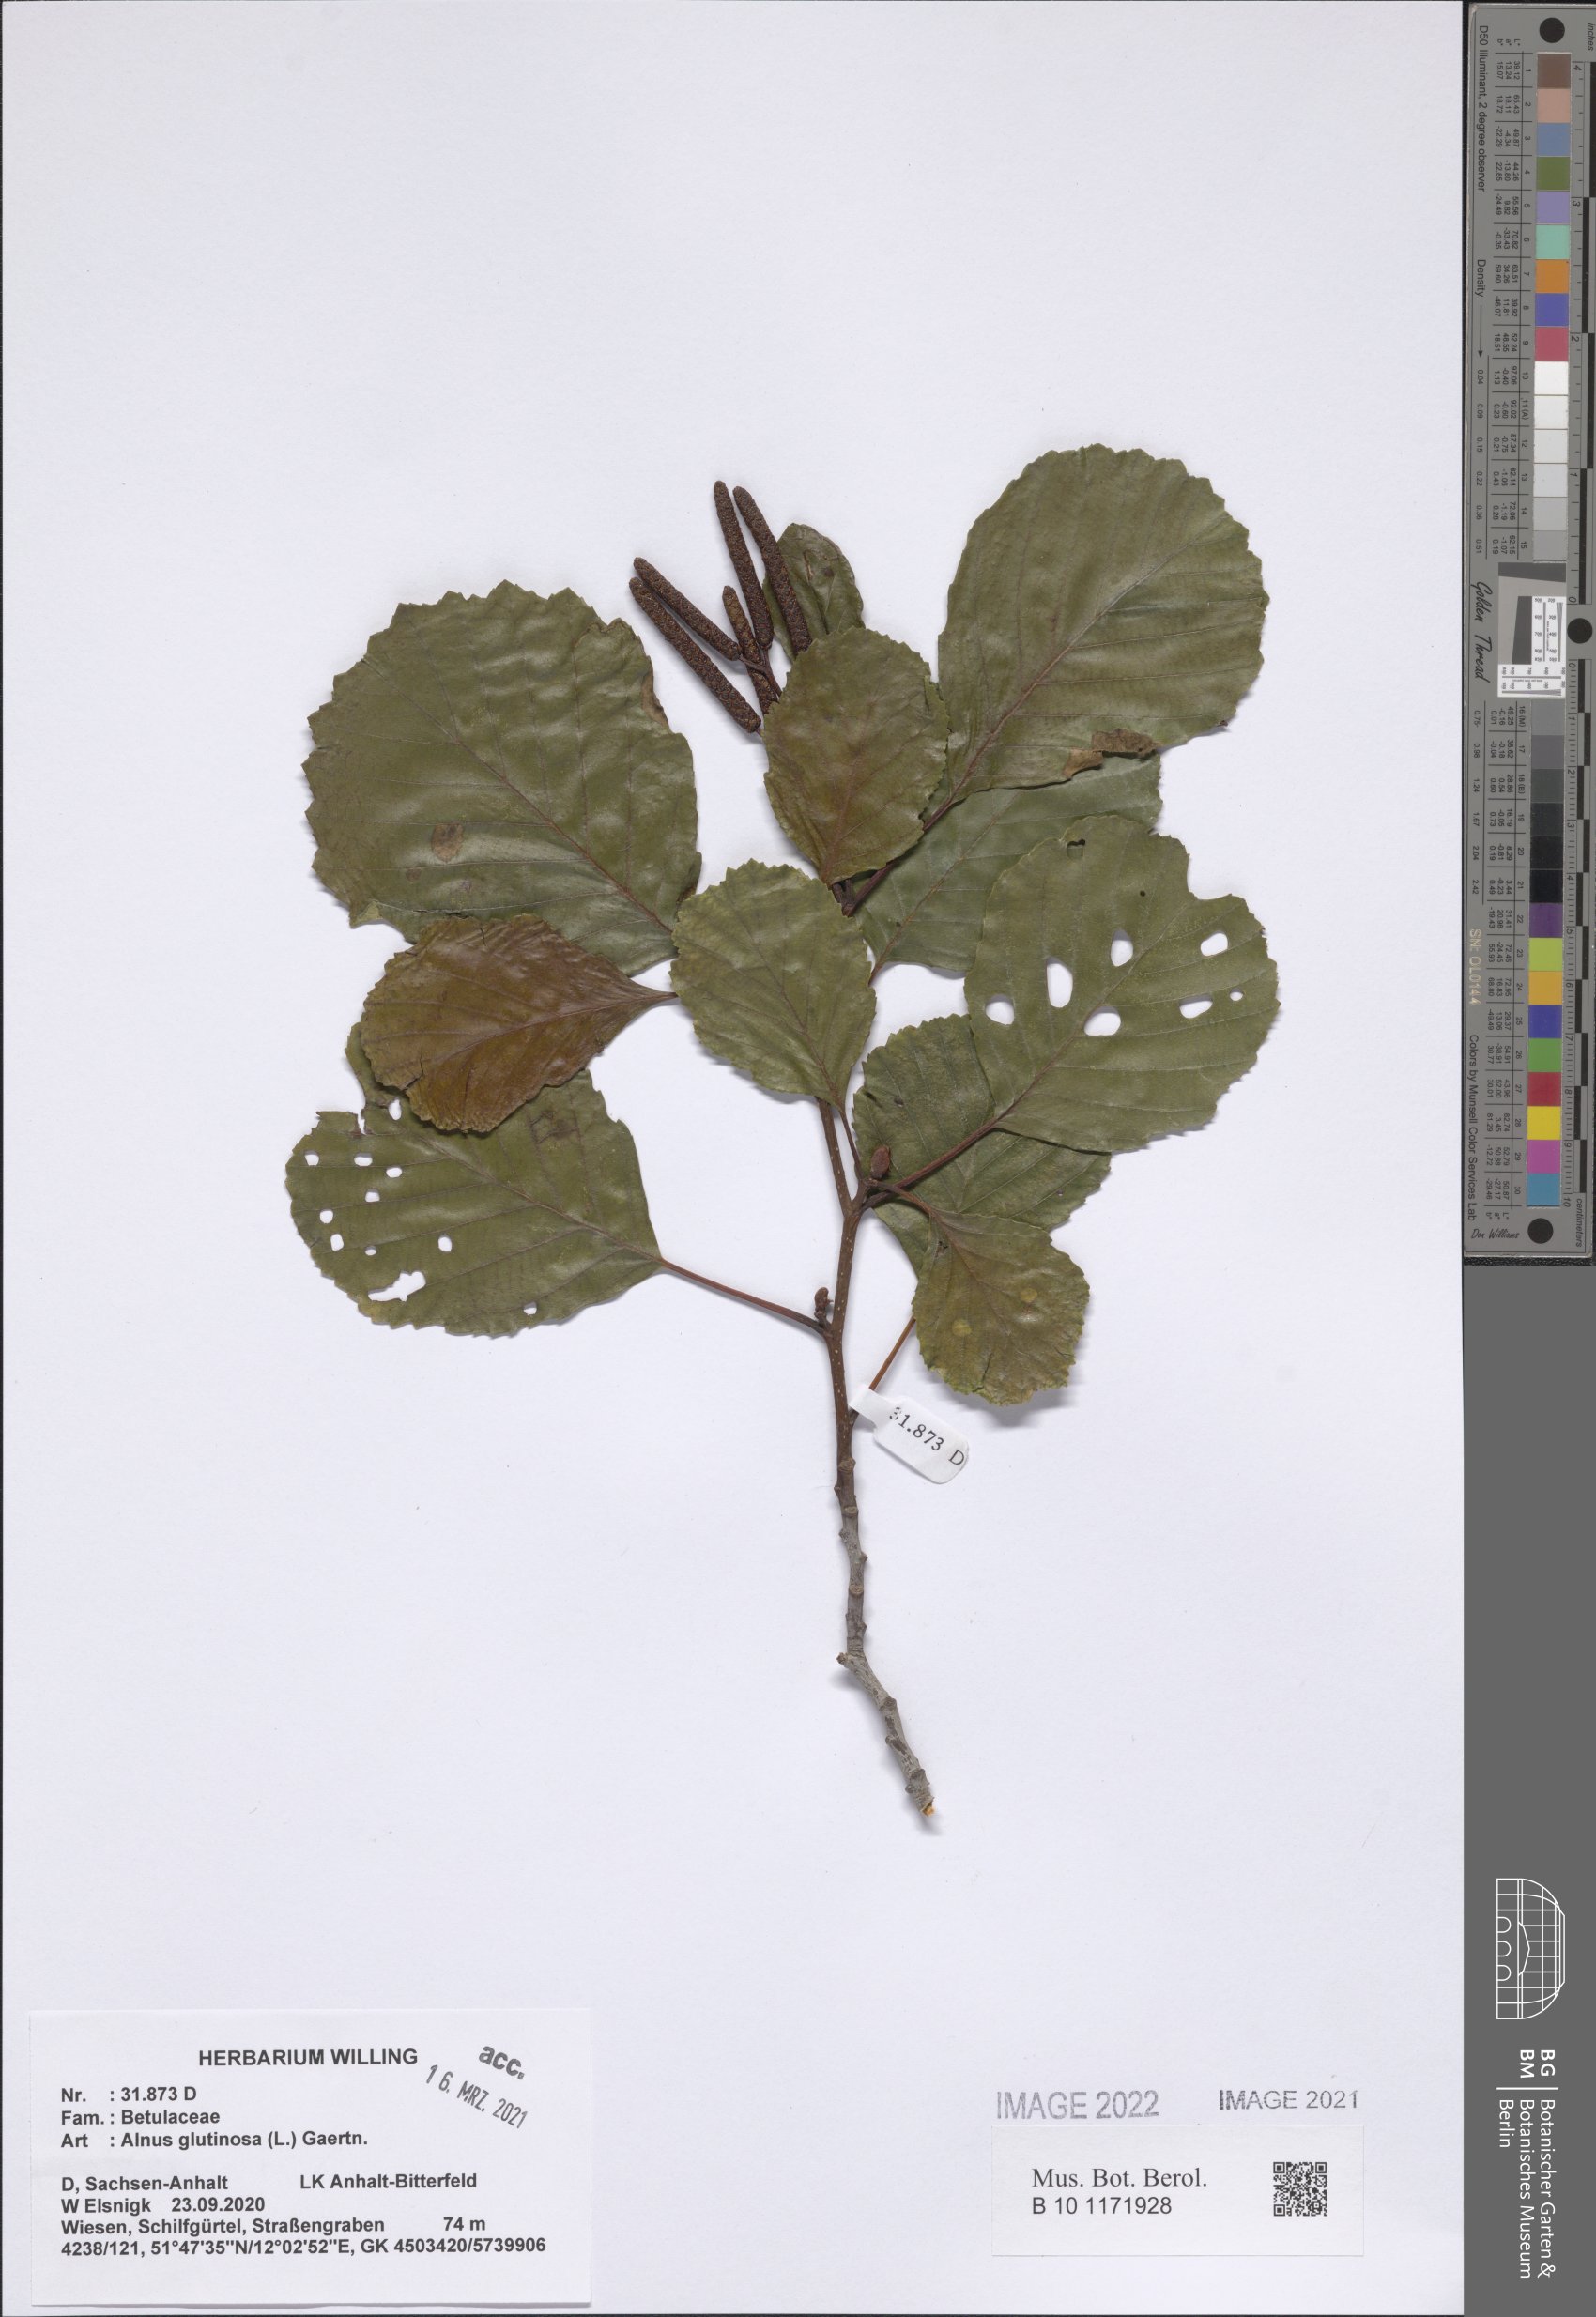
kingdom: Plantae
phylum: Tracheophyta
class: Magnoliopsida
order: Fagales
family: Betulaceae
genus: Alnus
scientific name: Alnus glutinosa
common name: Black alder
